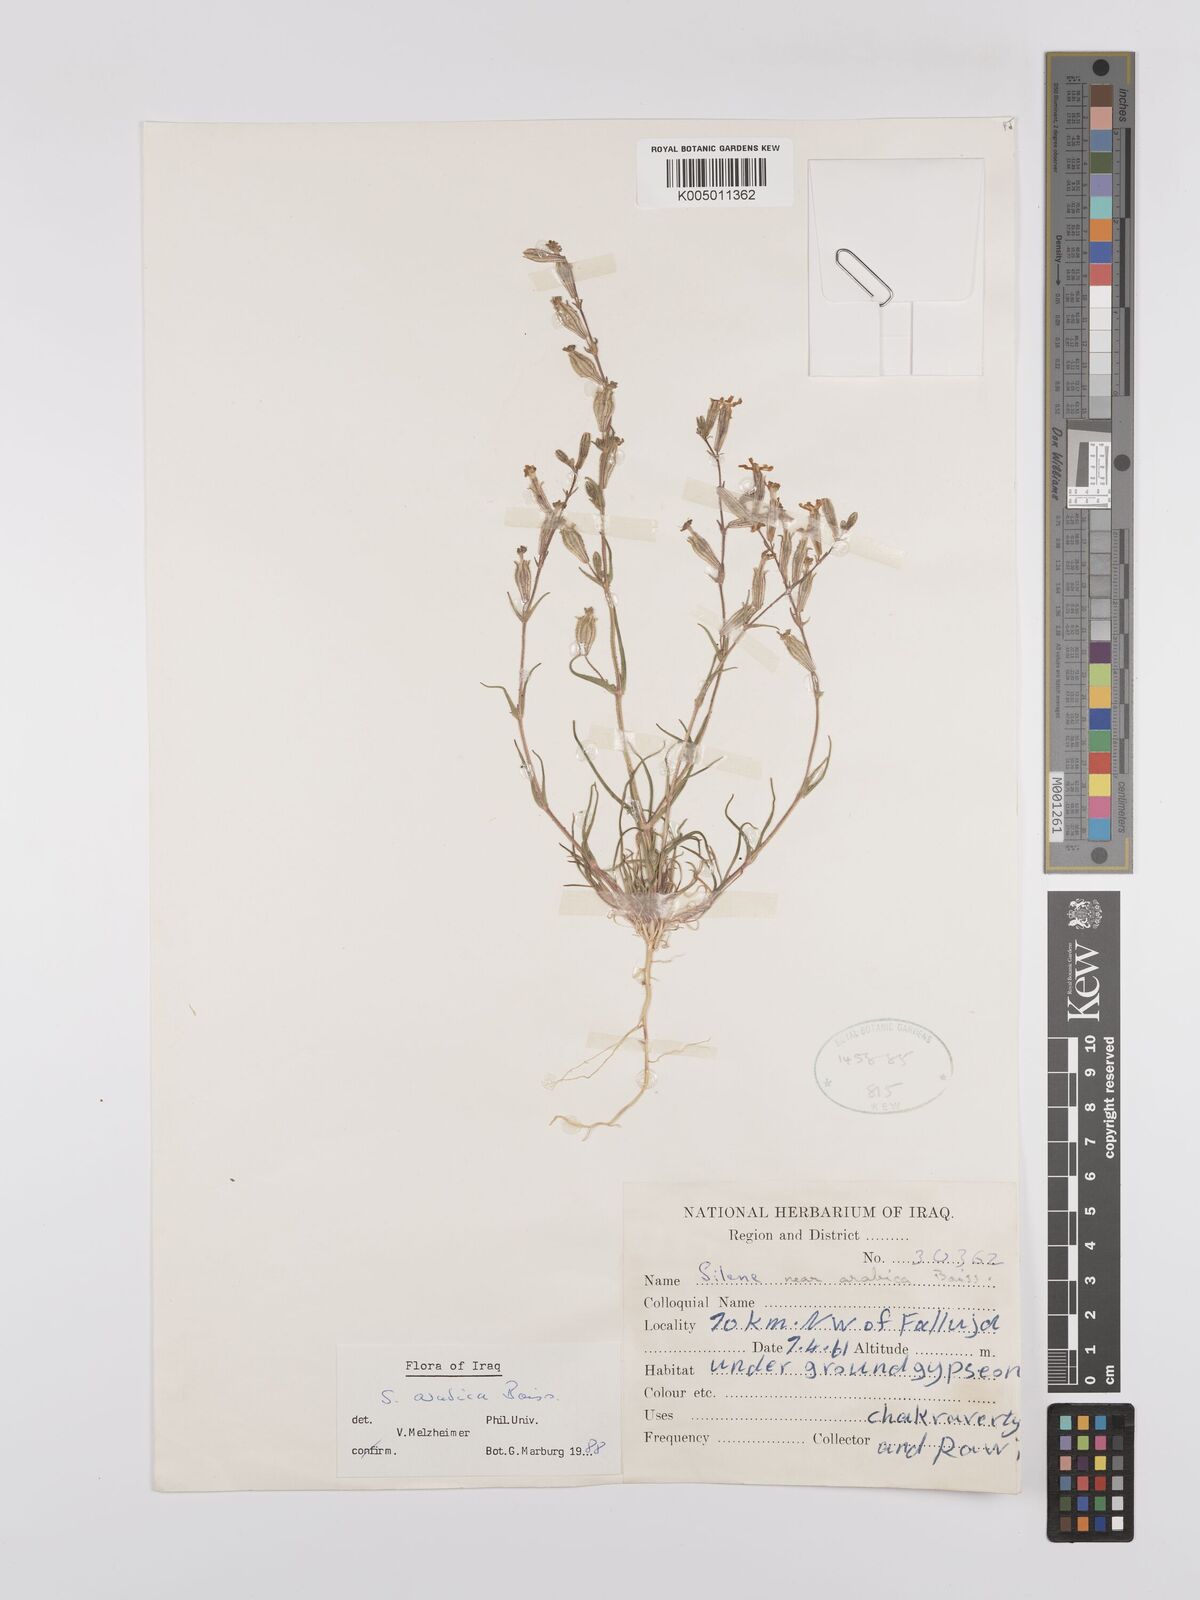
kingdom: Plantae
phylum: Tracheophyta
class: Magnoliopsida
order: Caryophyllales
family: Caryophyllaceae
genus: Silene
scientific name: Silene arabica
